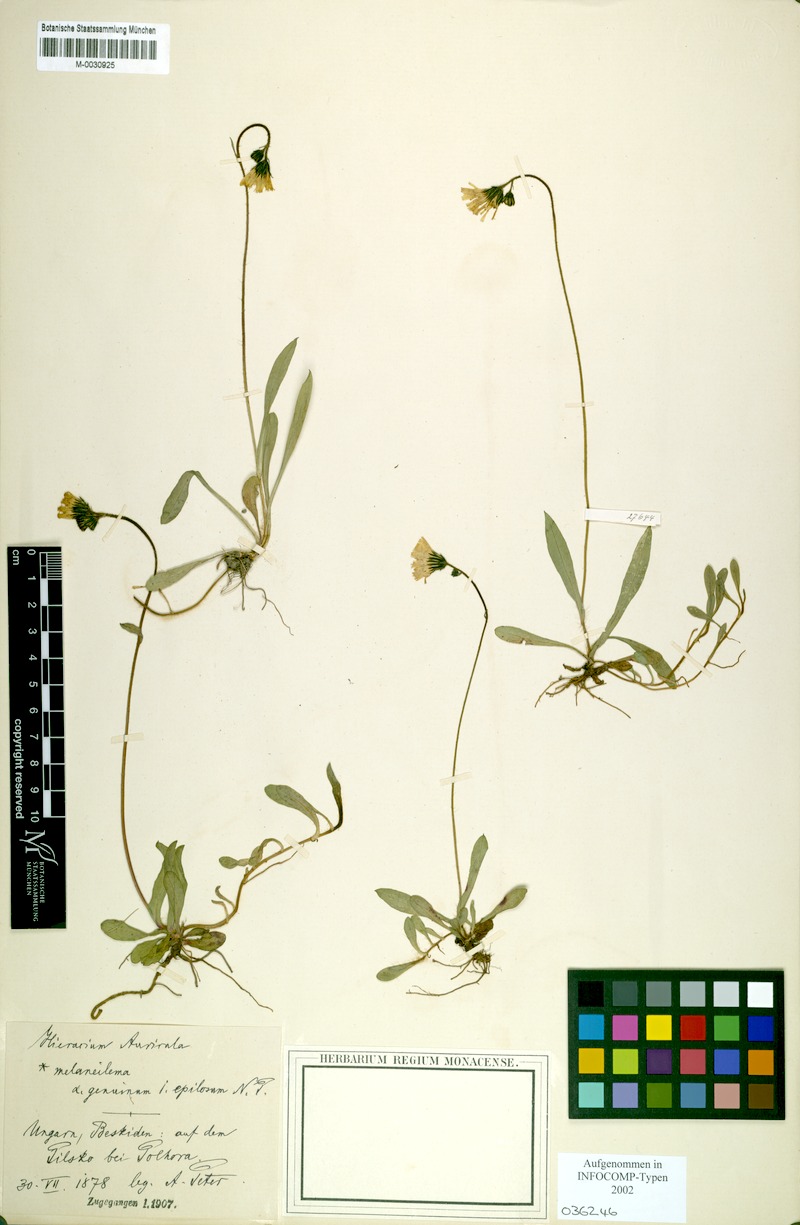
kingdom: Plantae
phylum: Tracheophyta
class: Magnoliopsida
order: Asterales
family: Asteraceae
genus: Pilosella
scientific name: Pilosella lactucella
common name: Glaucous fox-and-cubs
